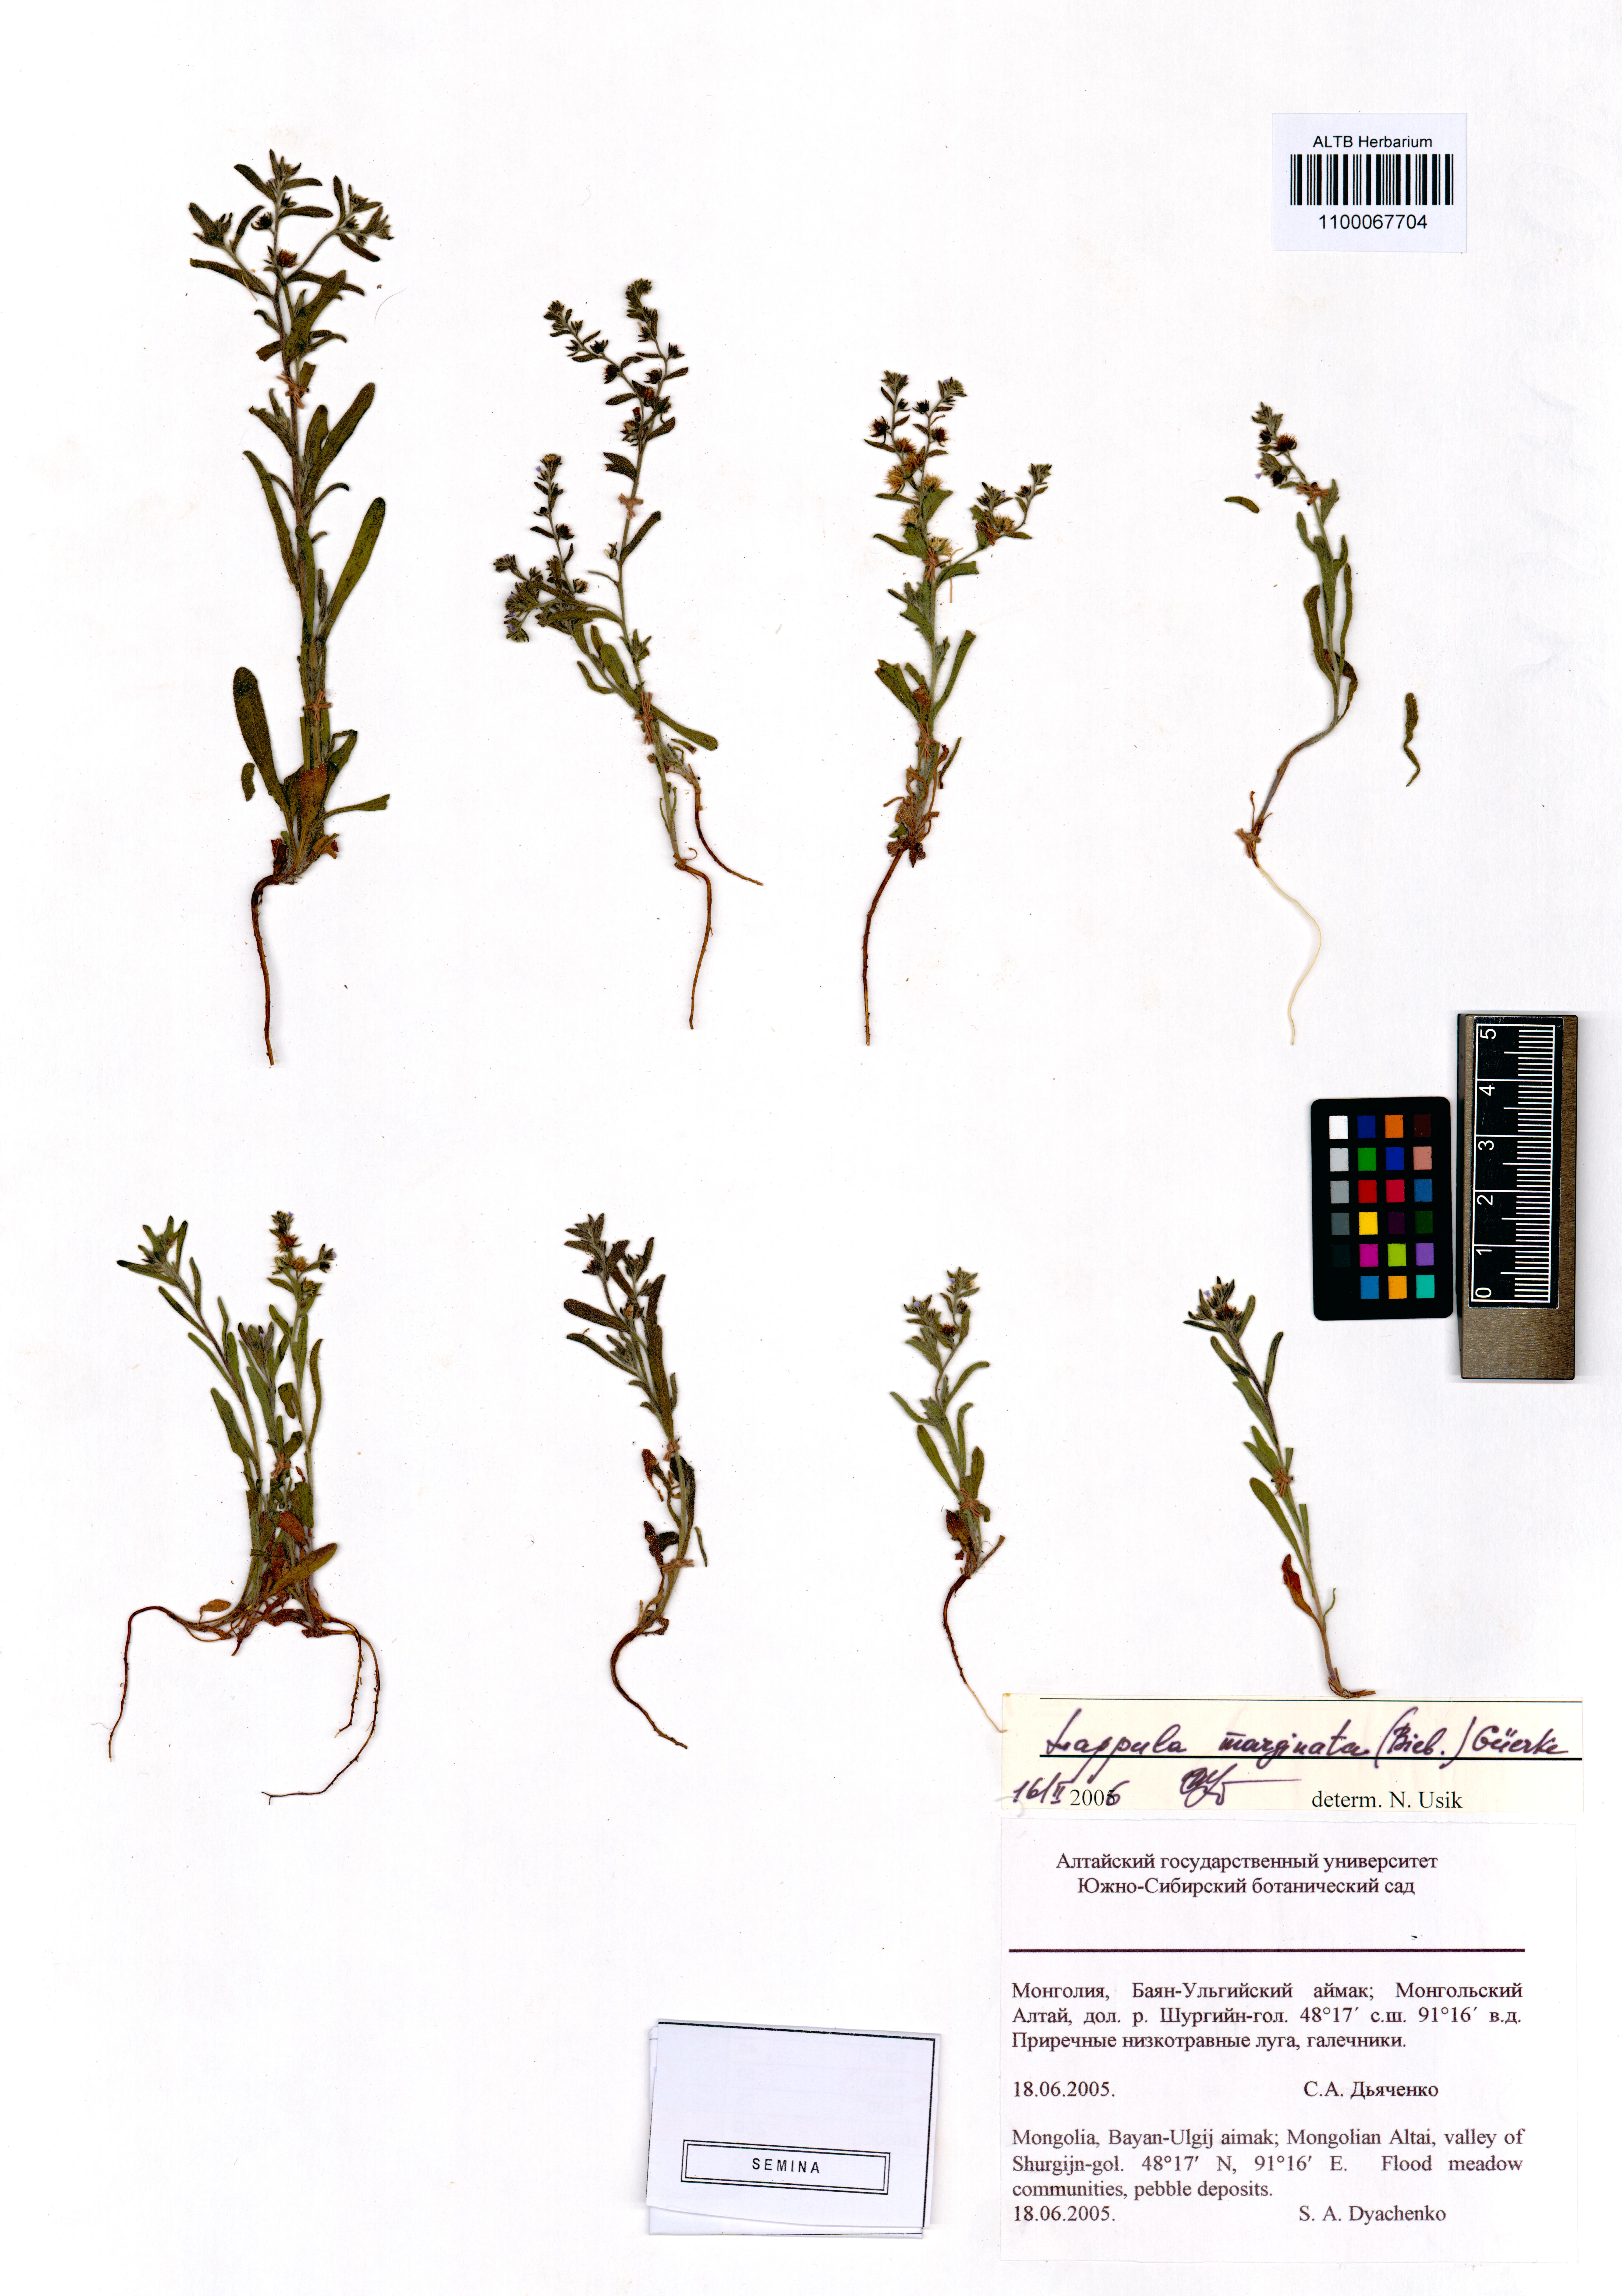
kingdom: Plantae
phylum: Tracheophyta
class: Magnoliopsida
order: Boraginales
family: Boraginaceae
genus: Lappula
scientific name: Lappula marginata
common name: Margined stickseed
